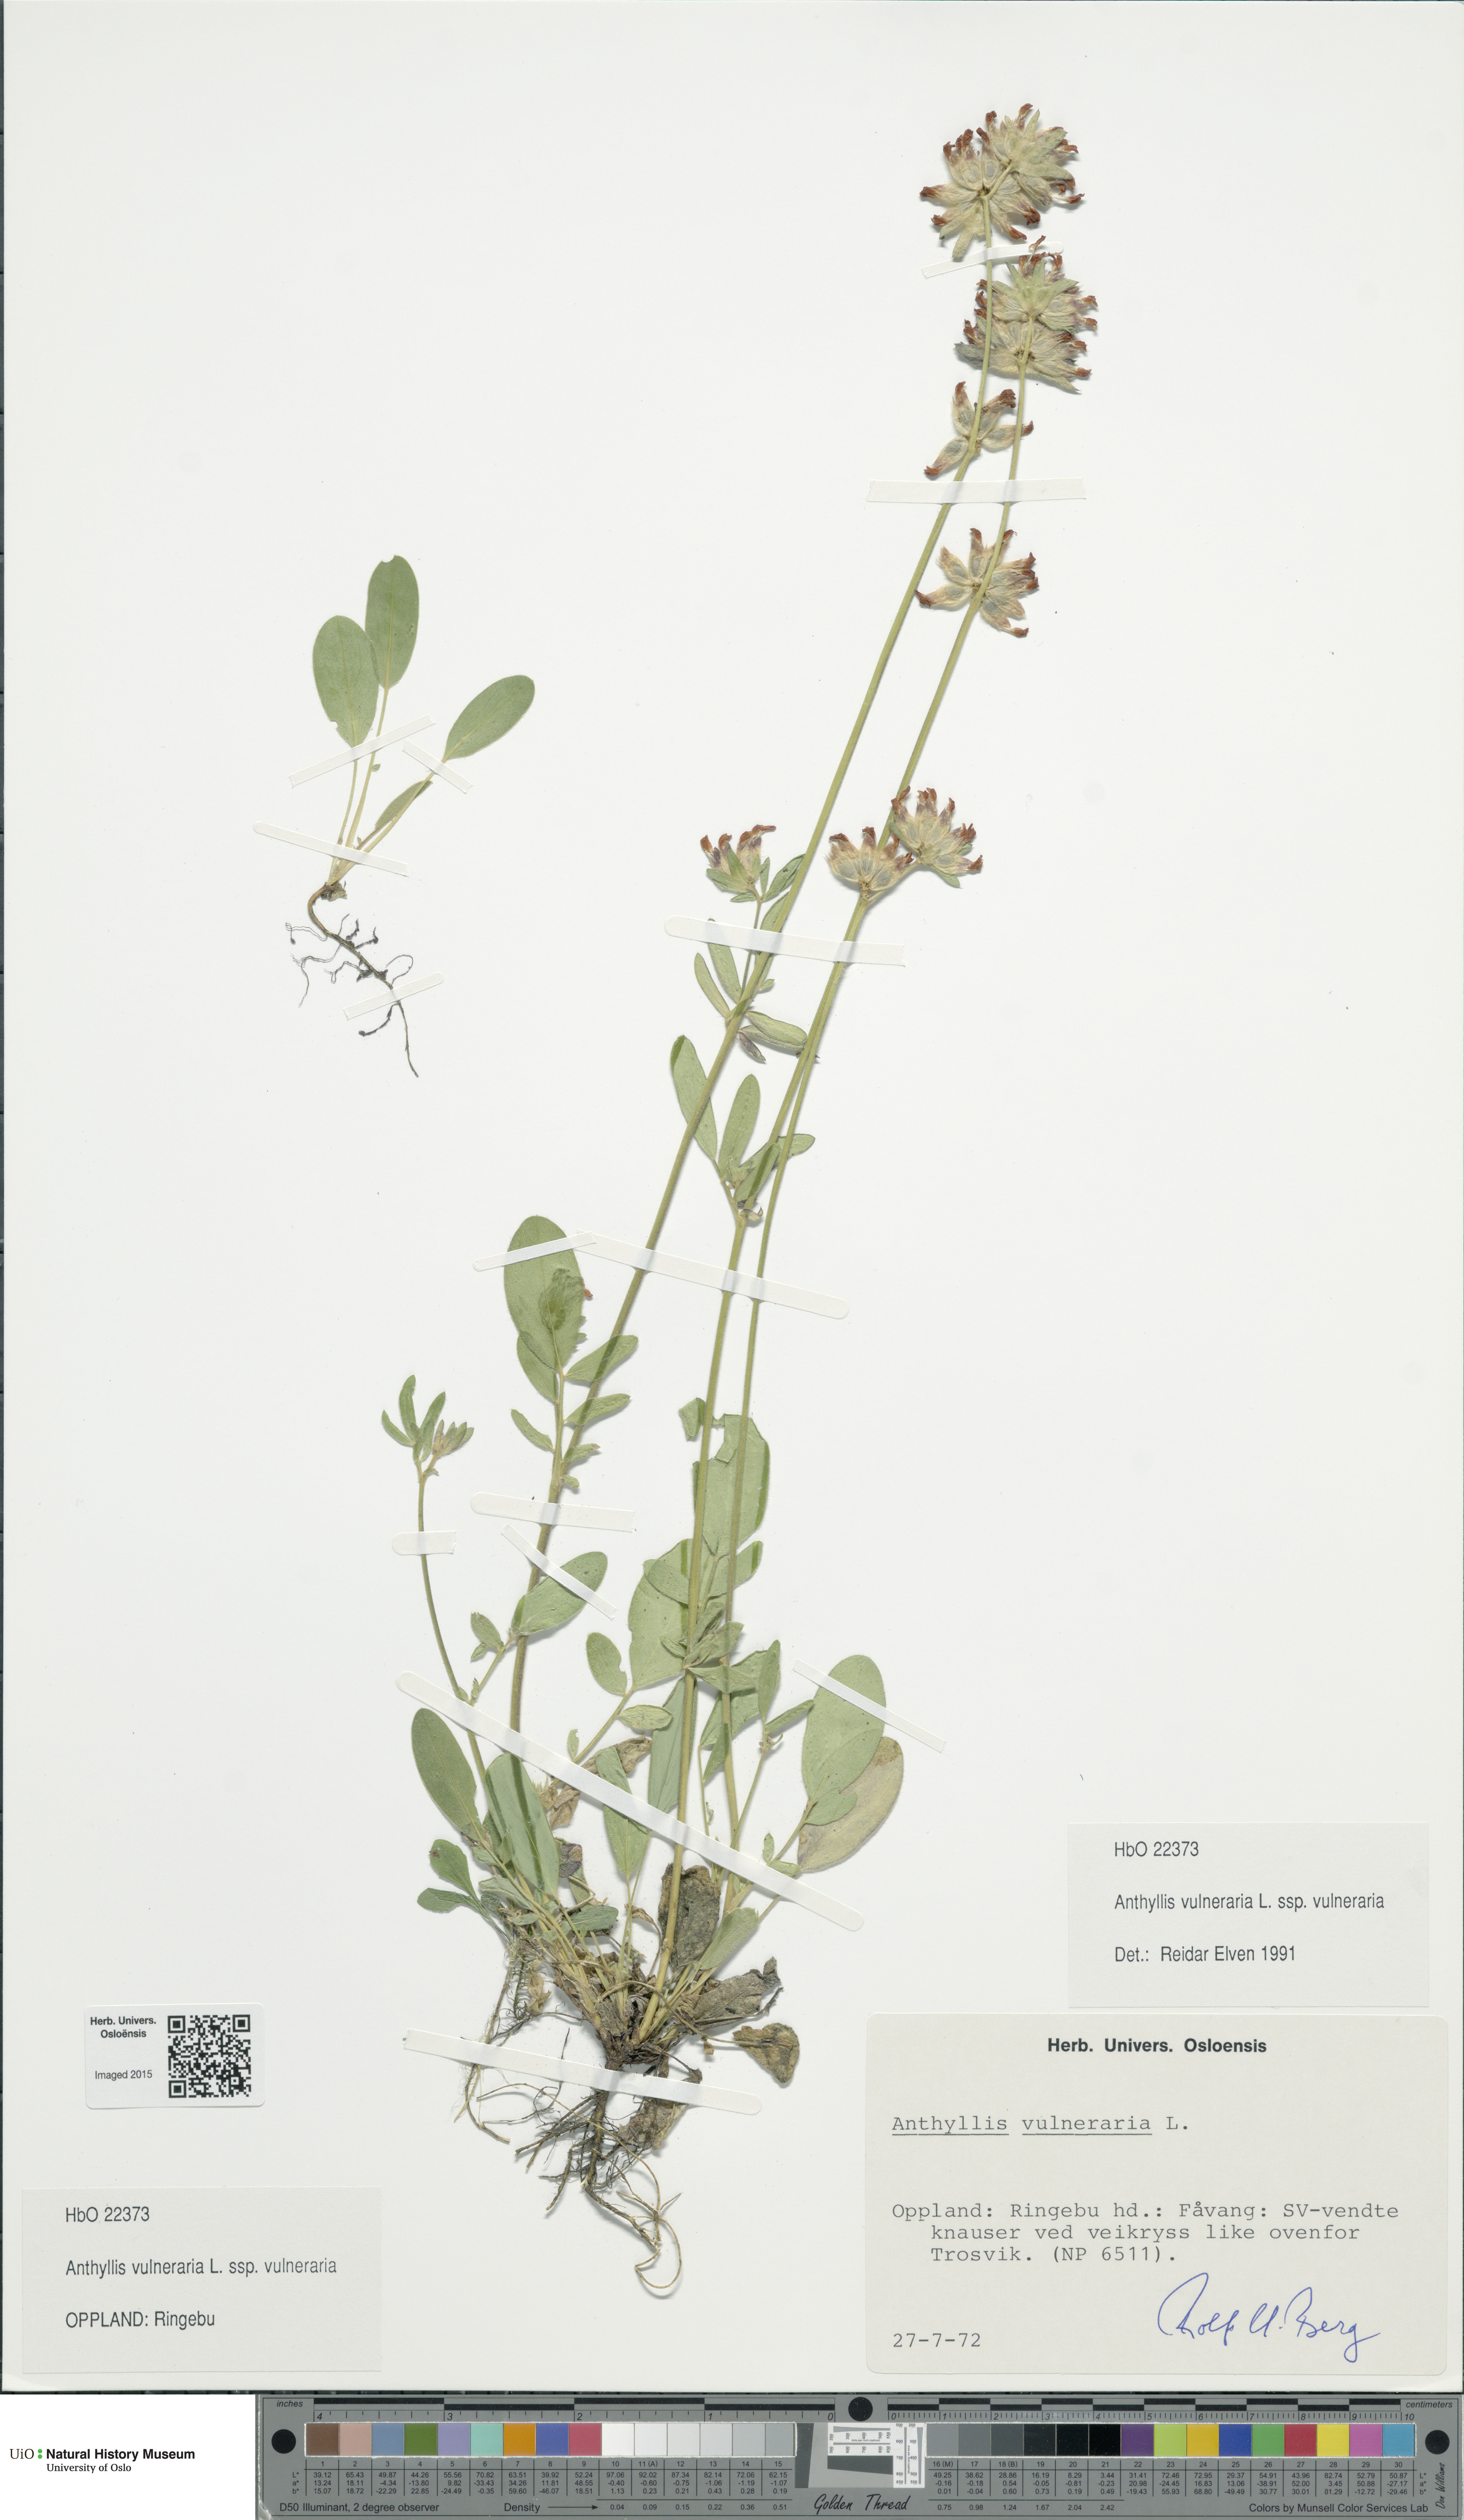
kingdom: Plantae
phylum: Tracheophyta
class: Magnoliopsida
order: Fabales
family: Fabaceae
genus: Anthyllis
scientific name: Anthyllis vulneraria
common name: Kidney vetch
